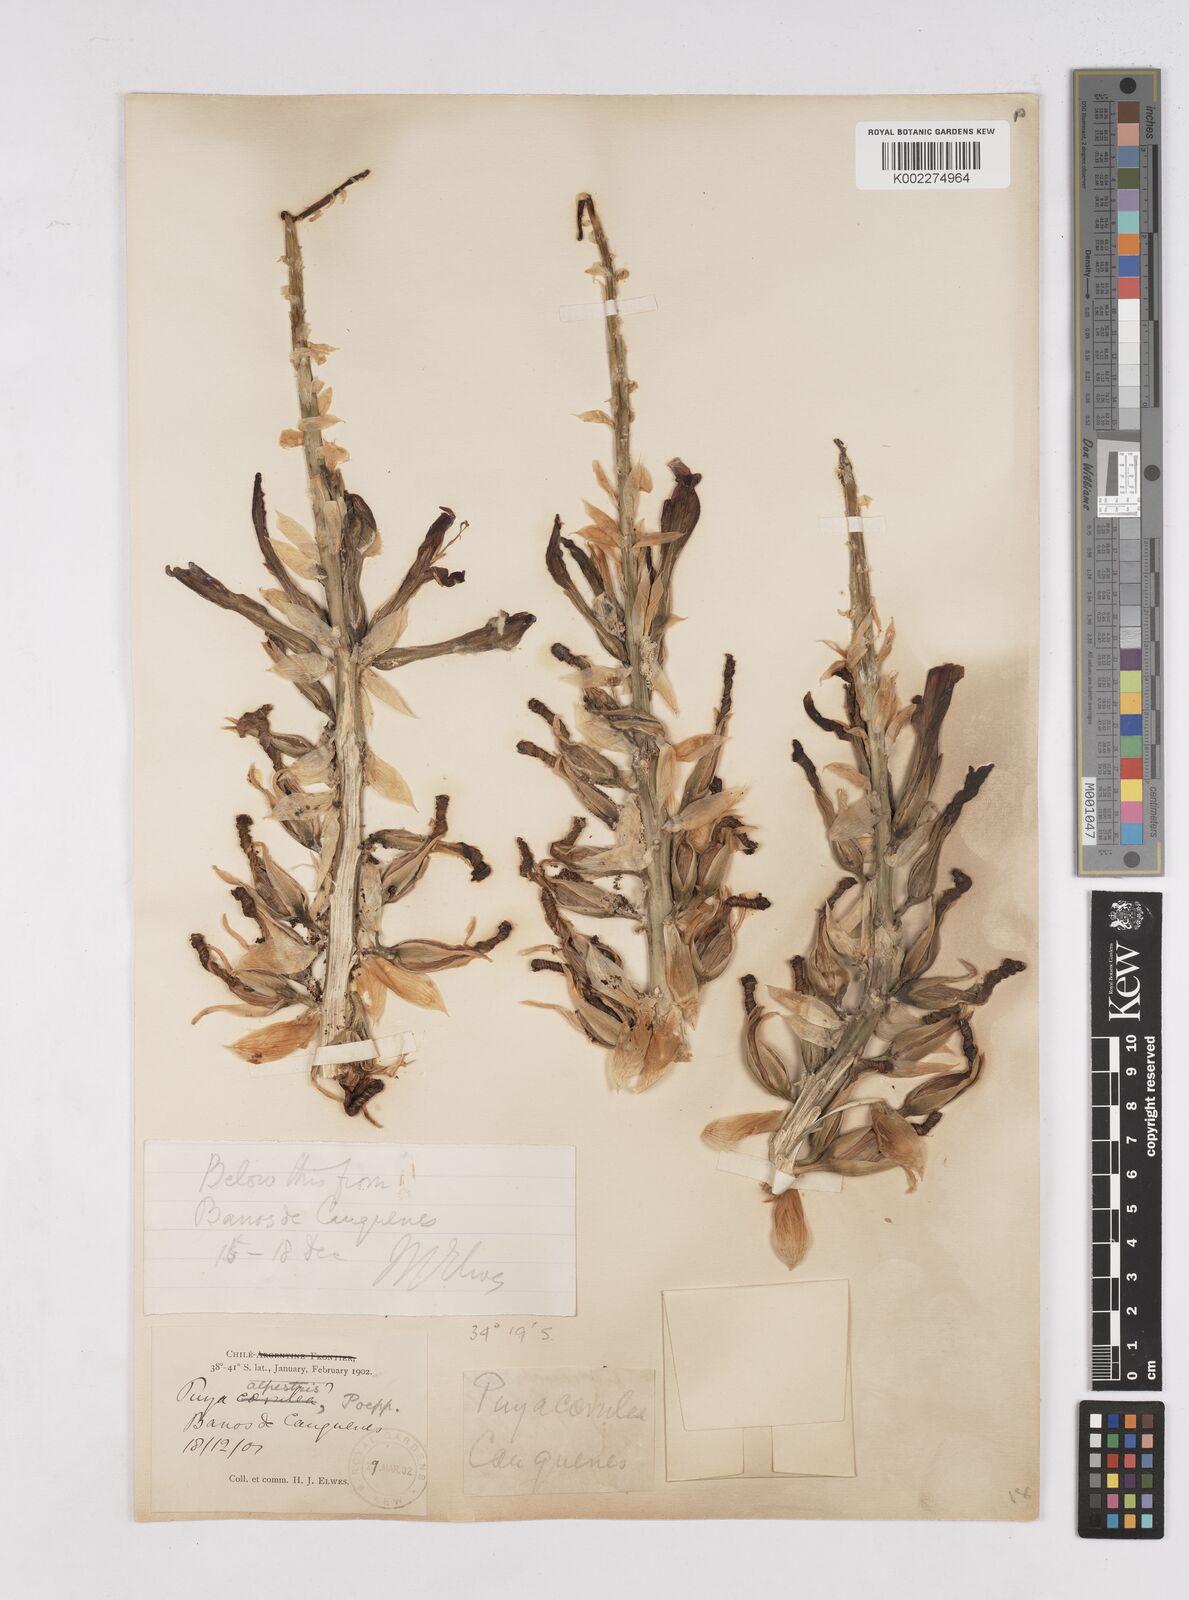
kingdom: Plantae
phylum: Tracheophyta
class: Liliopsida
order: Poales
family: Bromeliaceae
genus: Puya
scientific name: Puya alpestris
